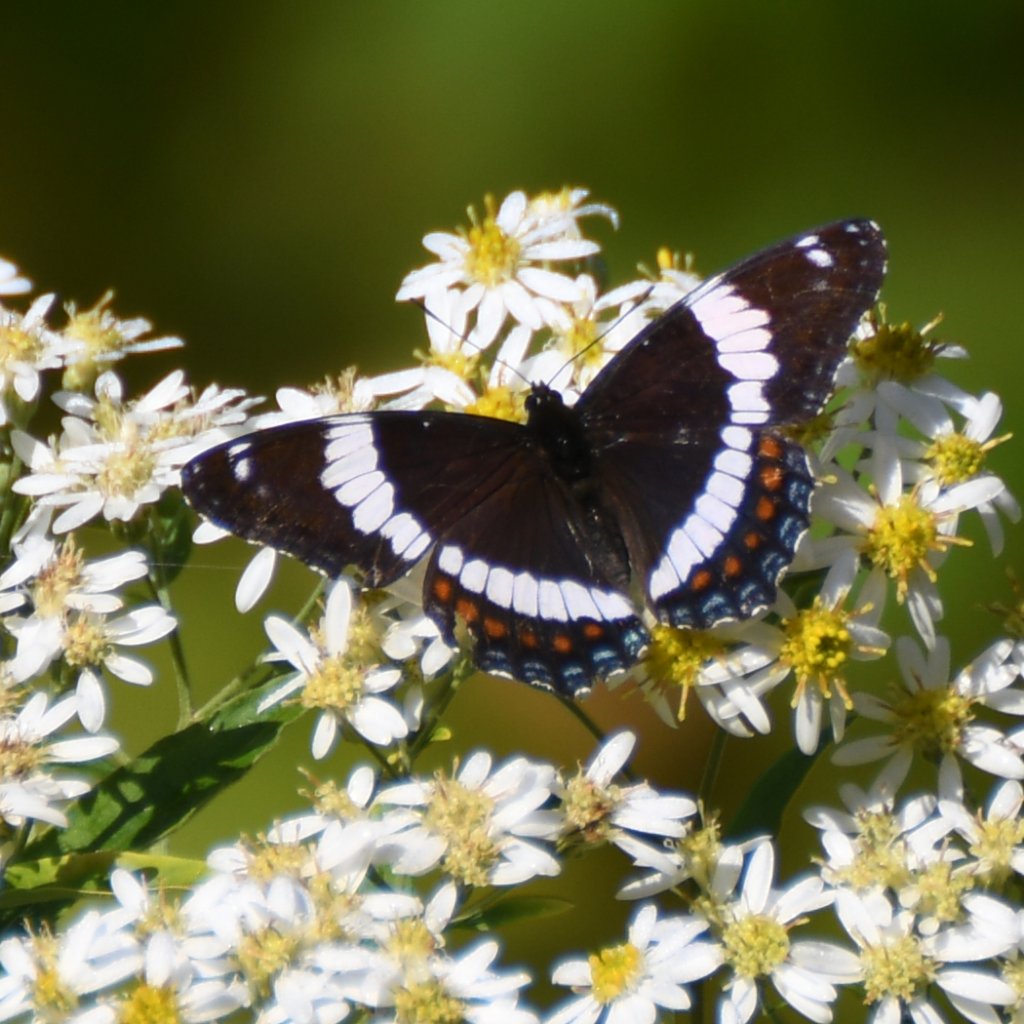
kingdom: Animalia
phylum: Arthropoda
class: Insecta
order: Lepidoptera
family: Nymphalidae
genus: Limenitis
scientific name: Limenitis arthemis
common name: Red-spotted Admiral
